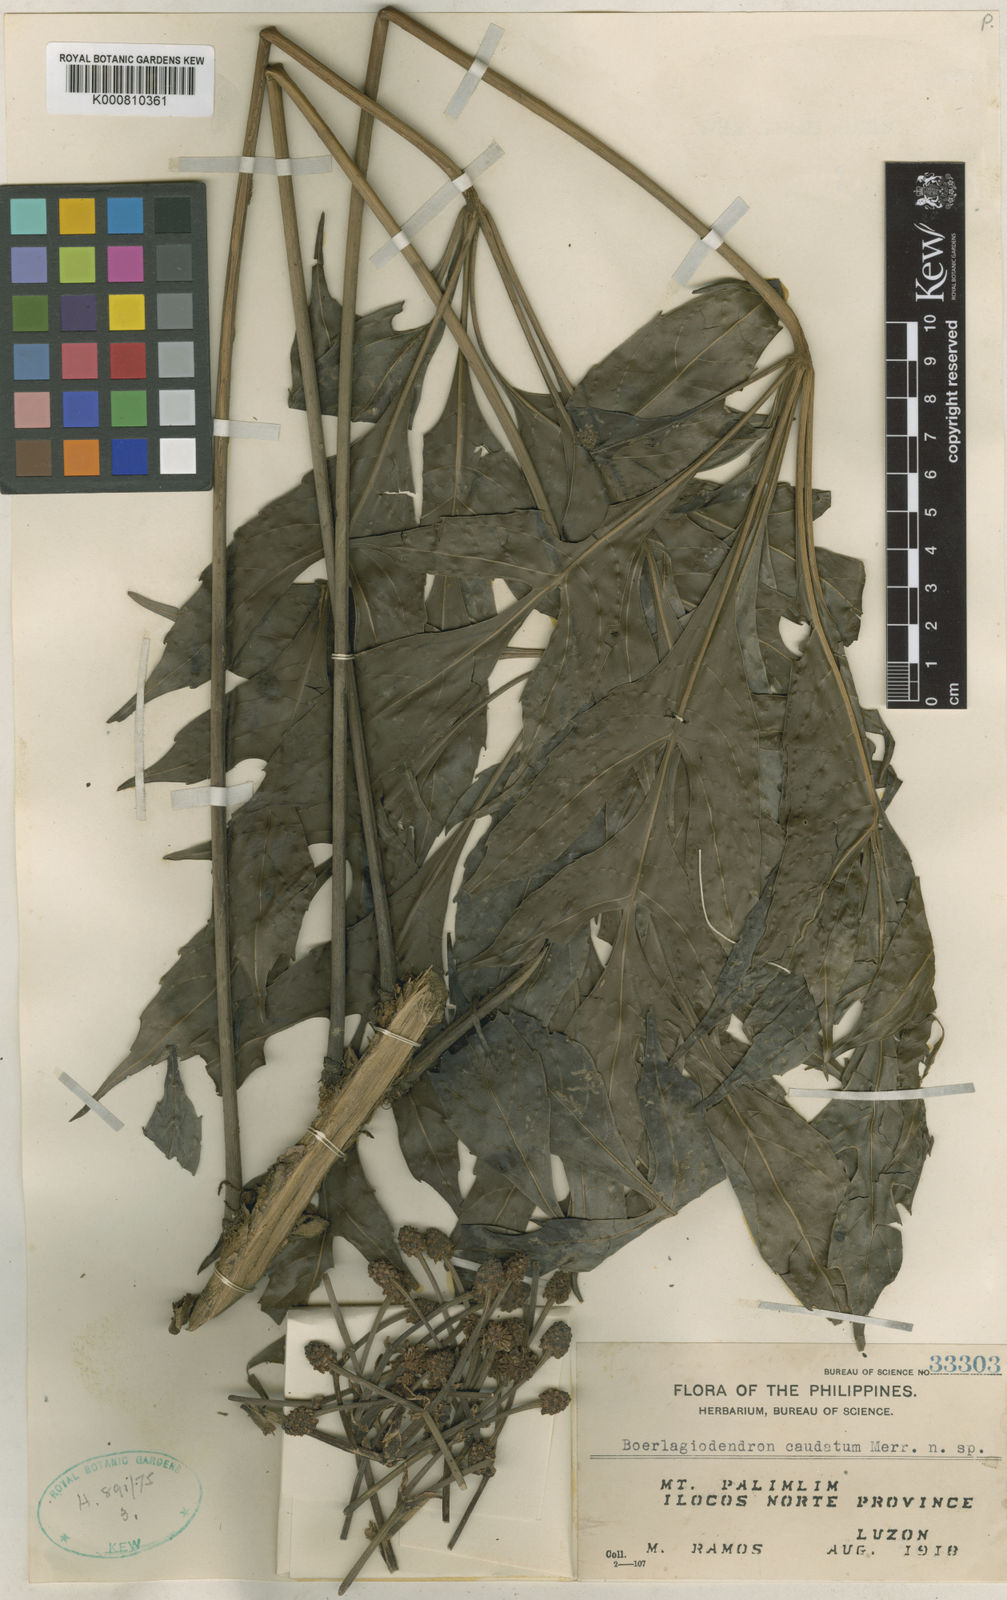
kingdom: Plantae
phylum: Tracheophyta
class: Magnoliopsida
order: Apiales
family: Araliaceae
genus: Osmoxylon
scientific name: Osmoxylon caudatum
